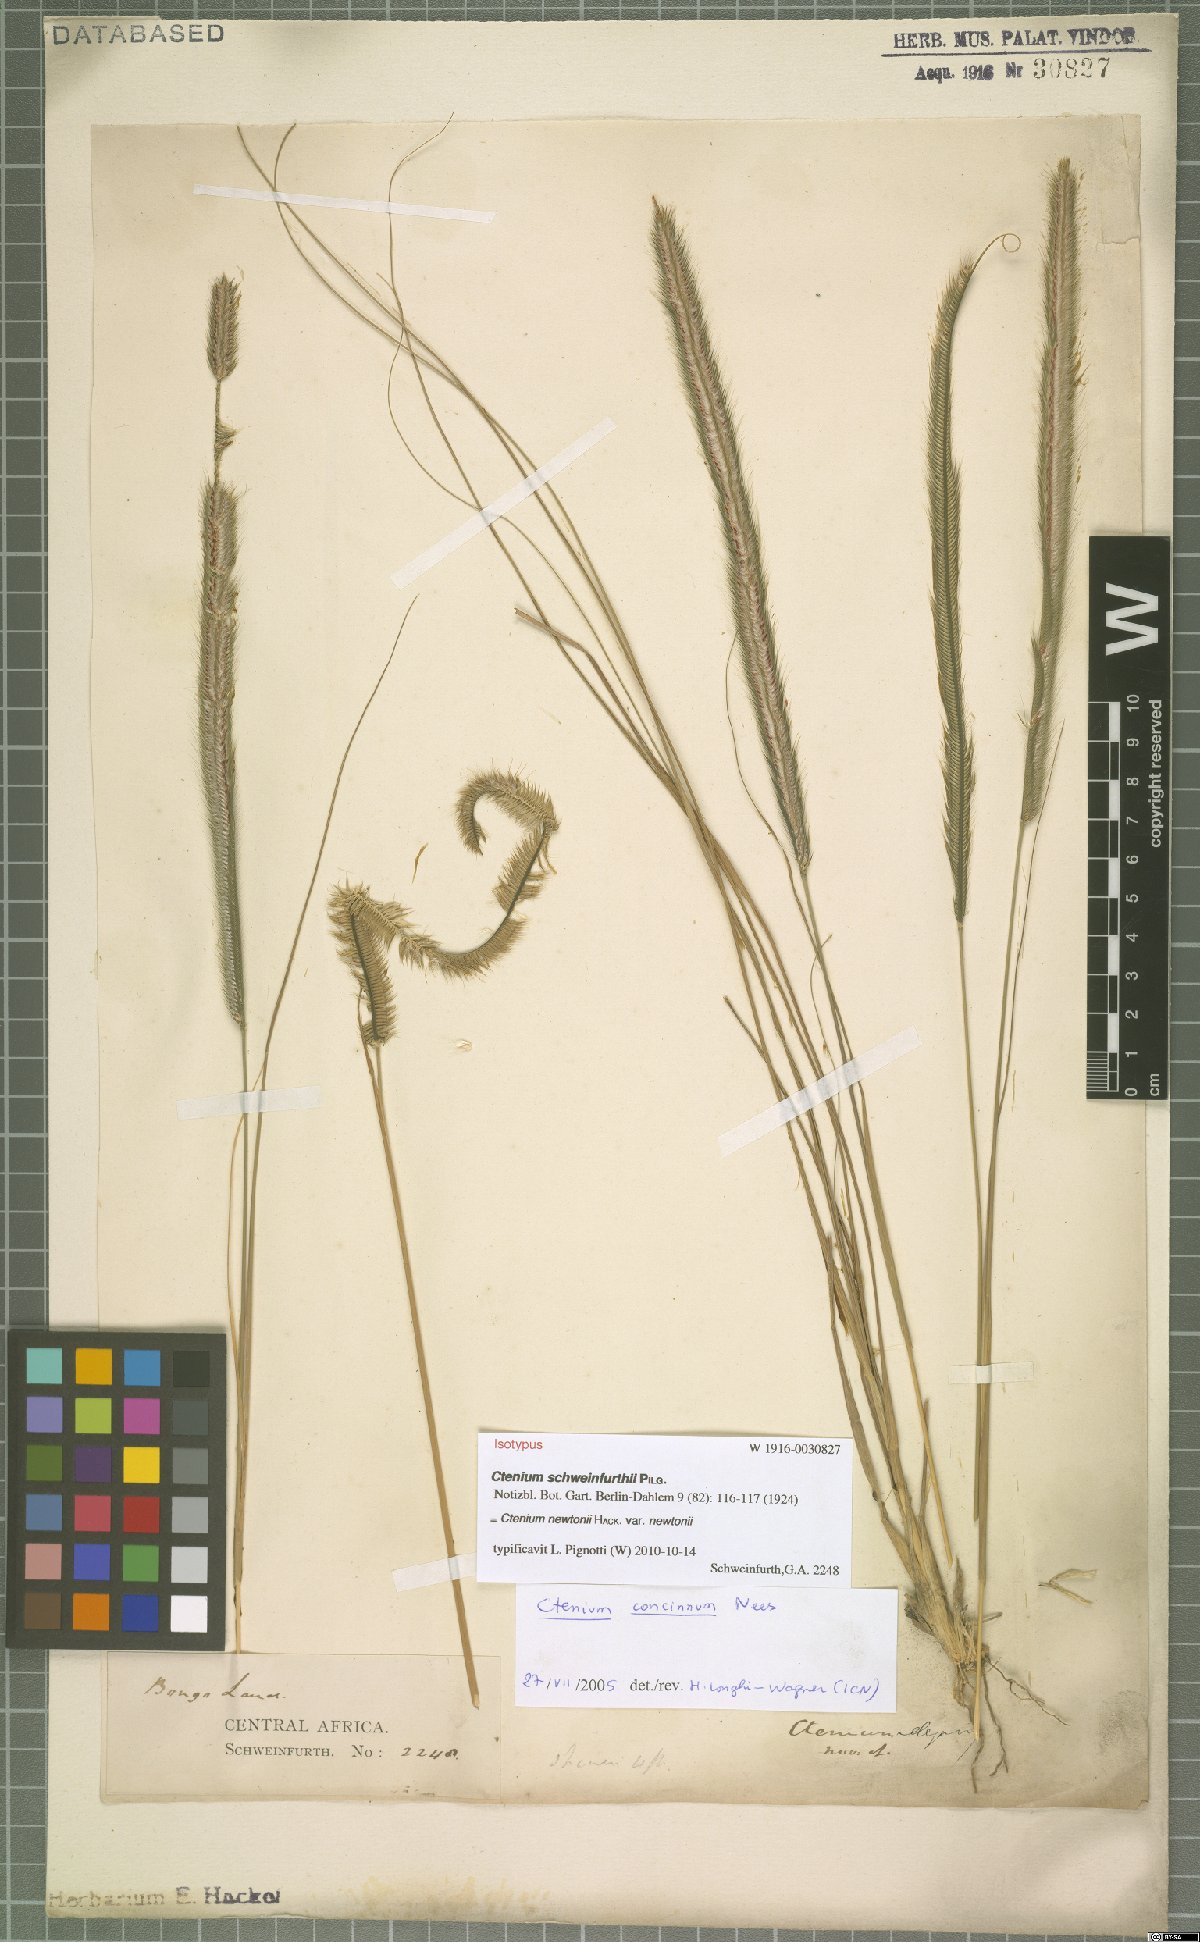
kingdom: Plantae
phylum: Tracheophyta
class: Liliopsida
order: Poales
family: Poaceae
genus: Ctenium
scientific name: Ctenium newtonii
